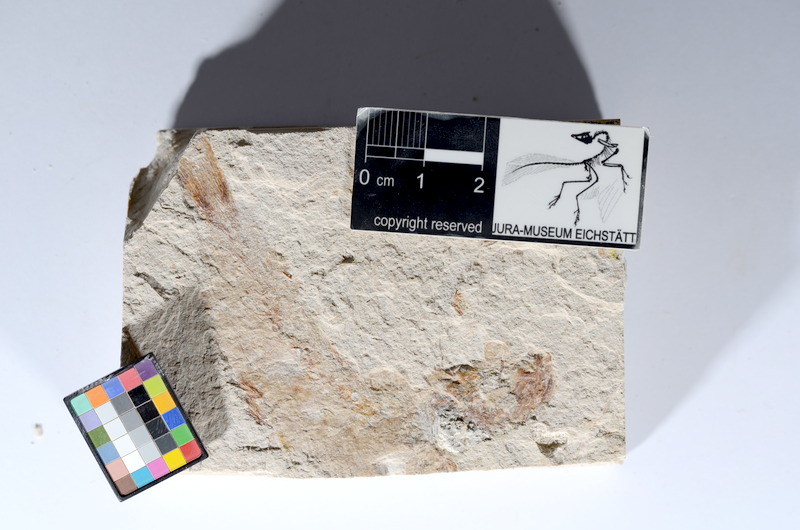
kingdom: Animalia
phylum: Chordata
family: Ascalaboidae
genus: Tharsis
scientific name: Tharsis dubius
